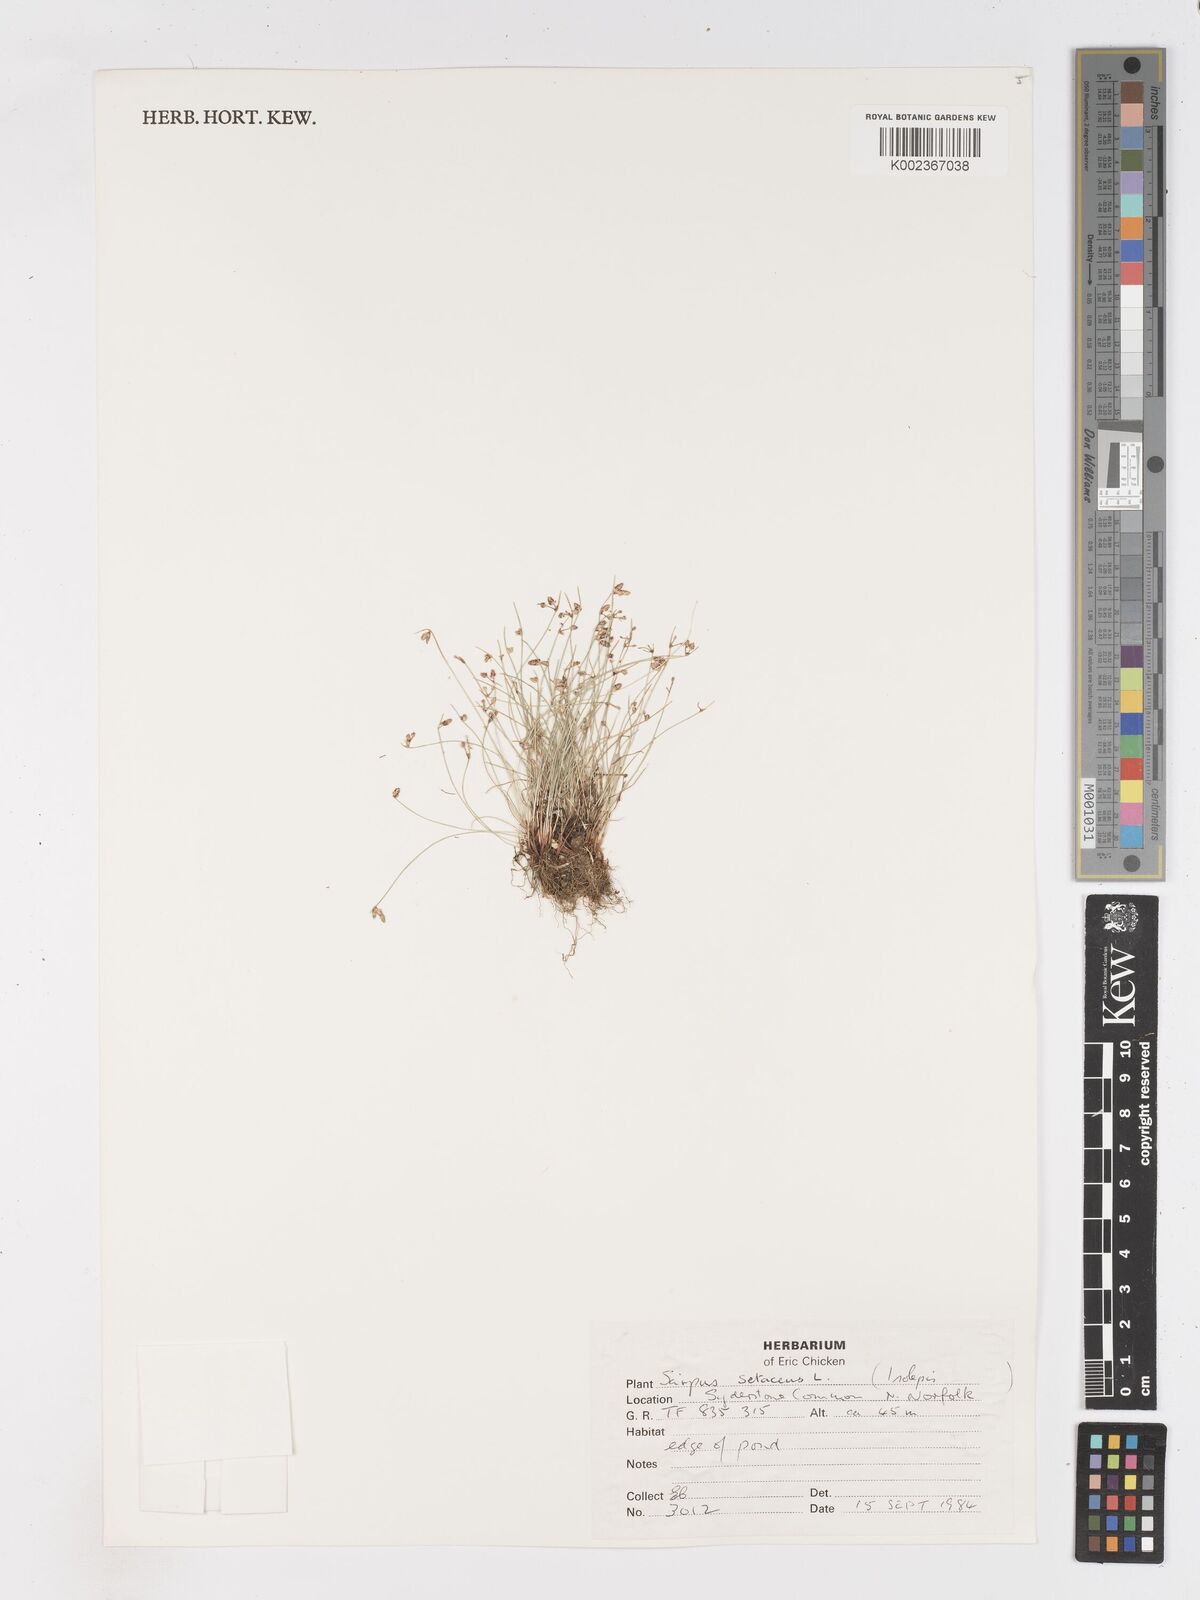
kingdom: Plantae
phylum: Tracheophyta
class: Liliopsida
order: Poales
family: Cyperaceae
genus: Isolepis
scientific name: Isolepis setacea
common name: Bristle club-rush
